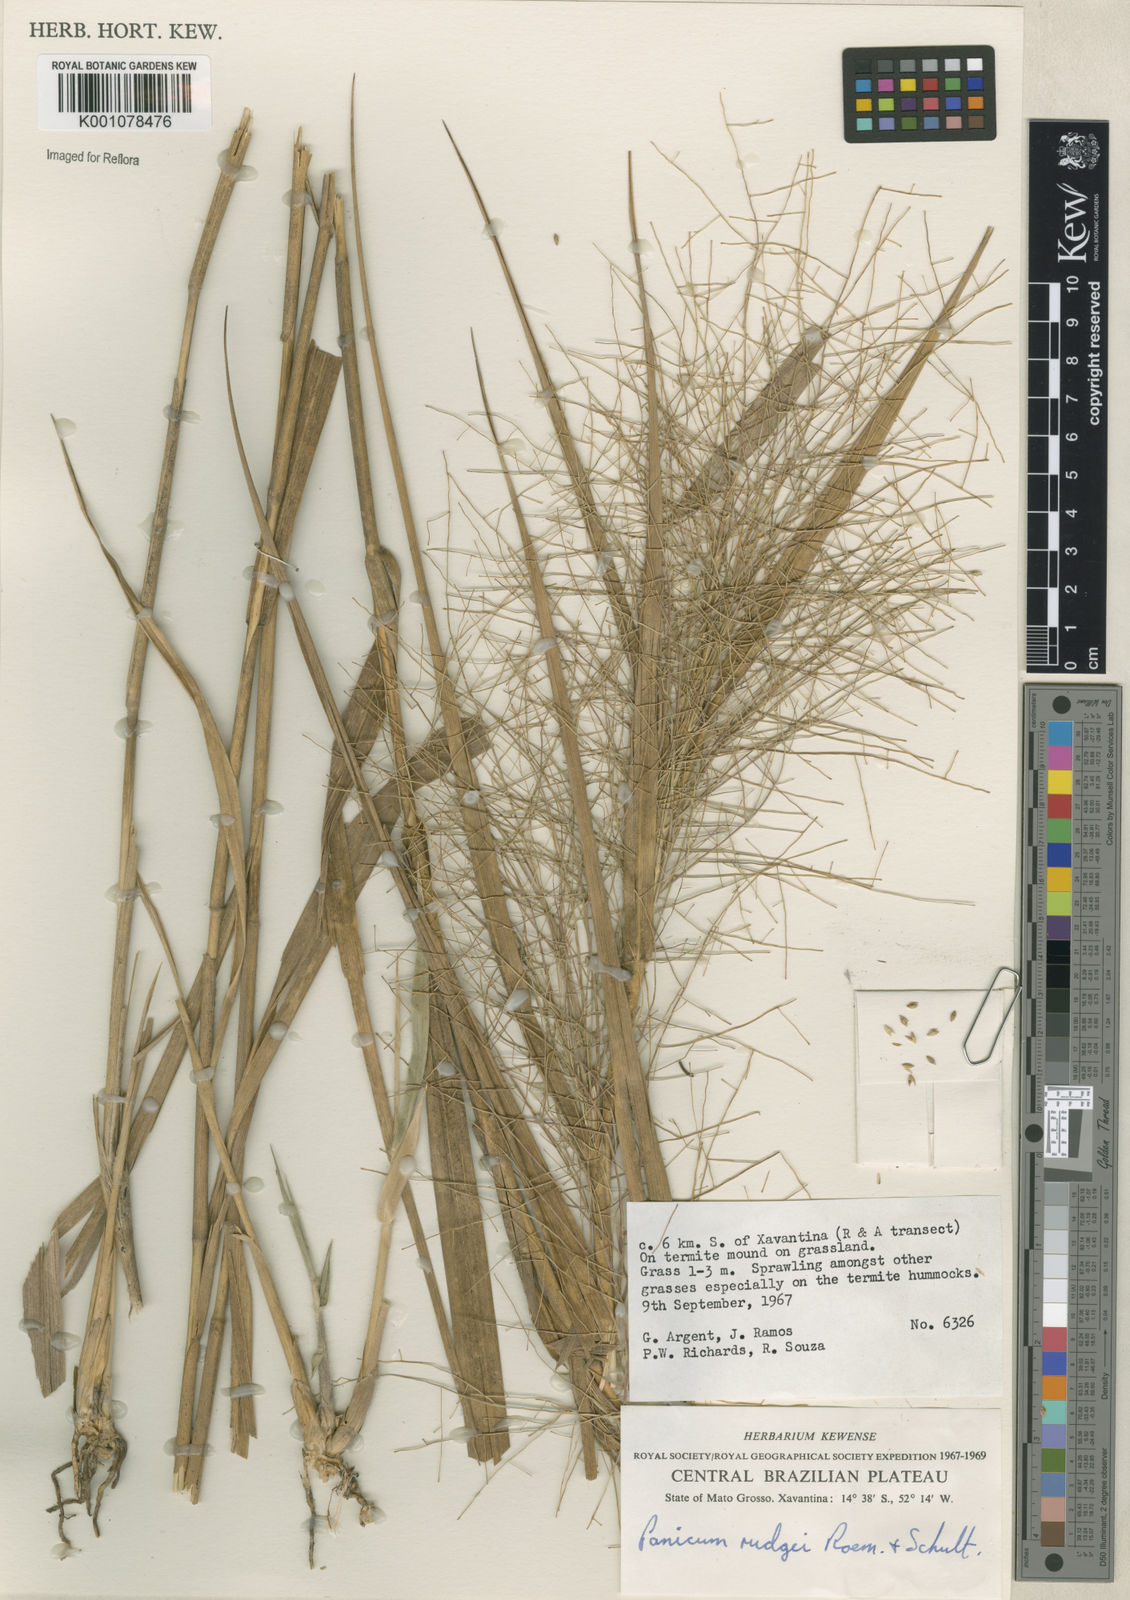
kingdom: Plantae
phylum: Tracheophyta
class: Liliopsida
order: Poales
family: Poaceae
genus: Panicum
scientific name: Panicum rudgei
